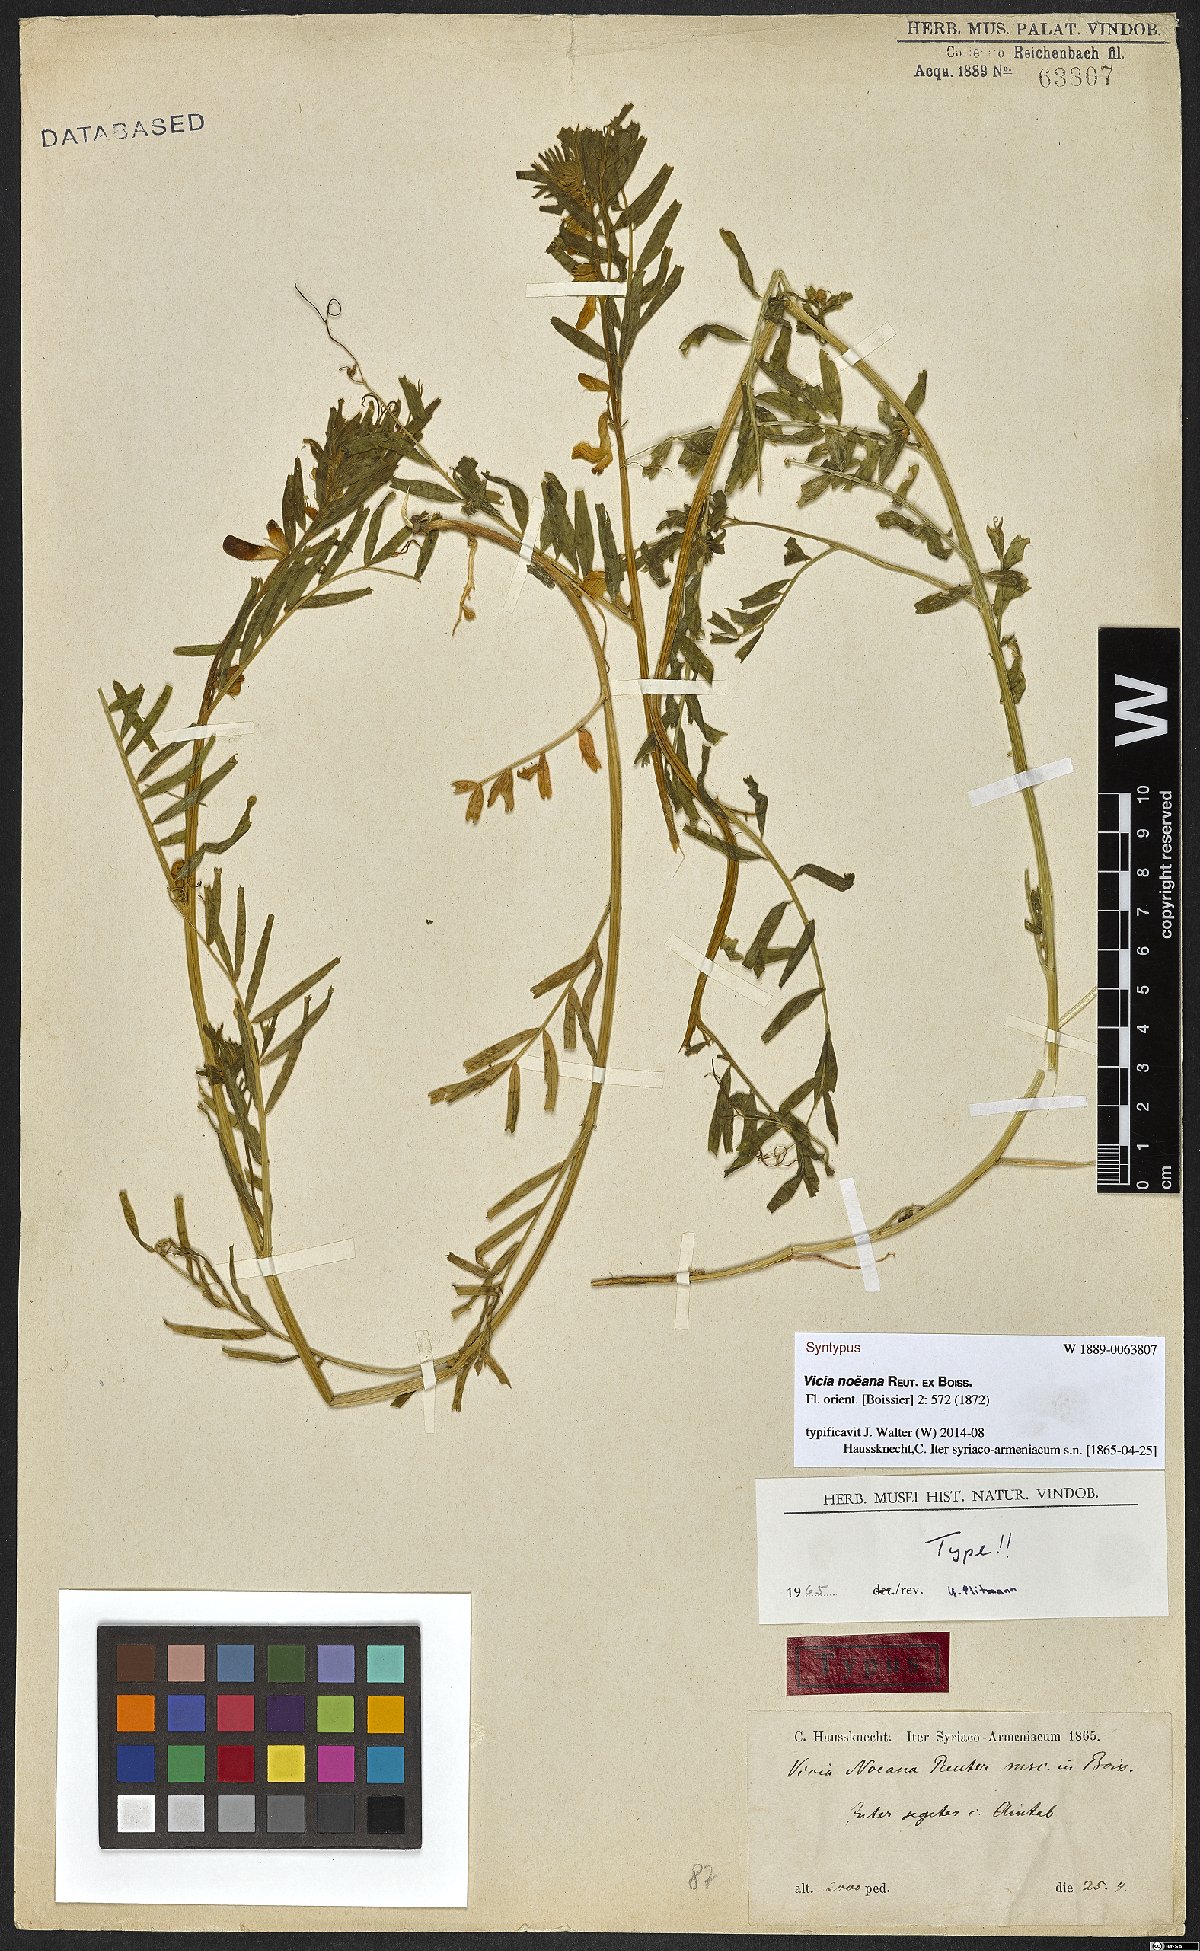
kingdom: Plantae
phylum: Tracheophyta
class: Magnoliopsida
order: Fabales
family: Fabaceae
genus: Vicia
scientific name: Vicia noeana
